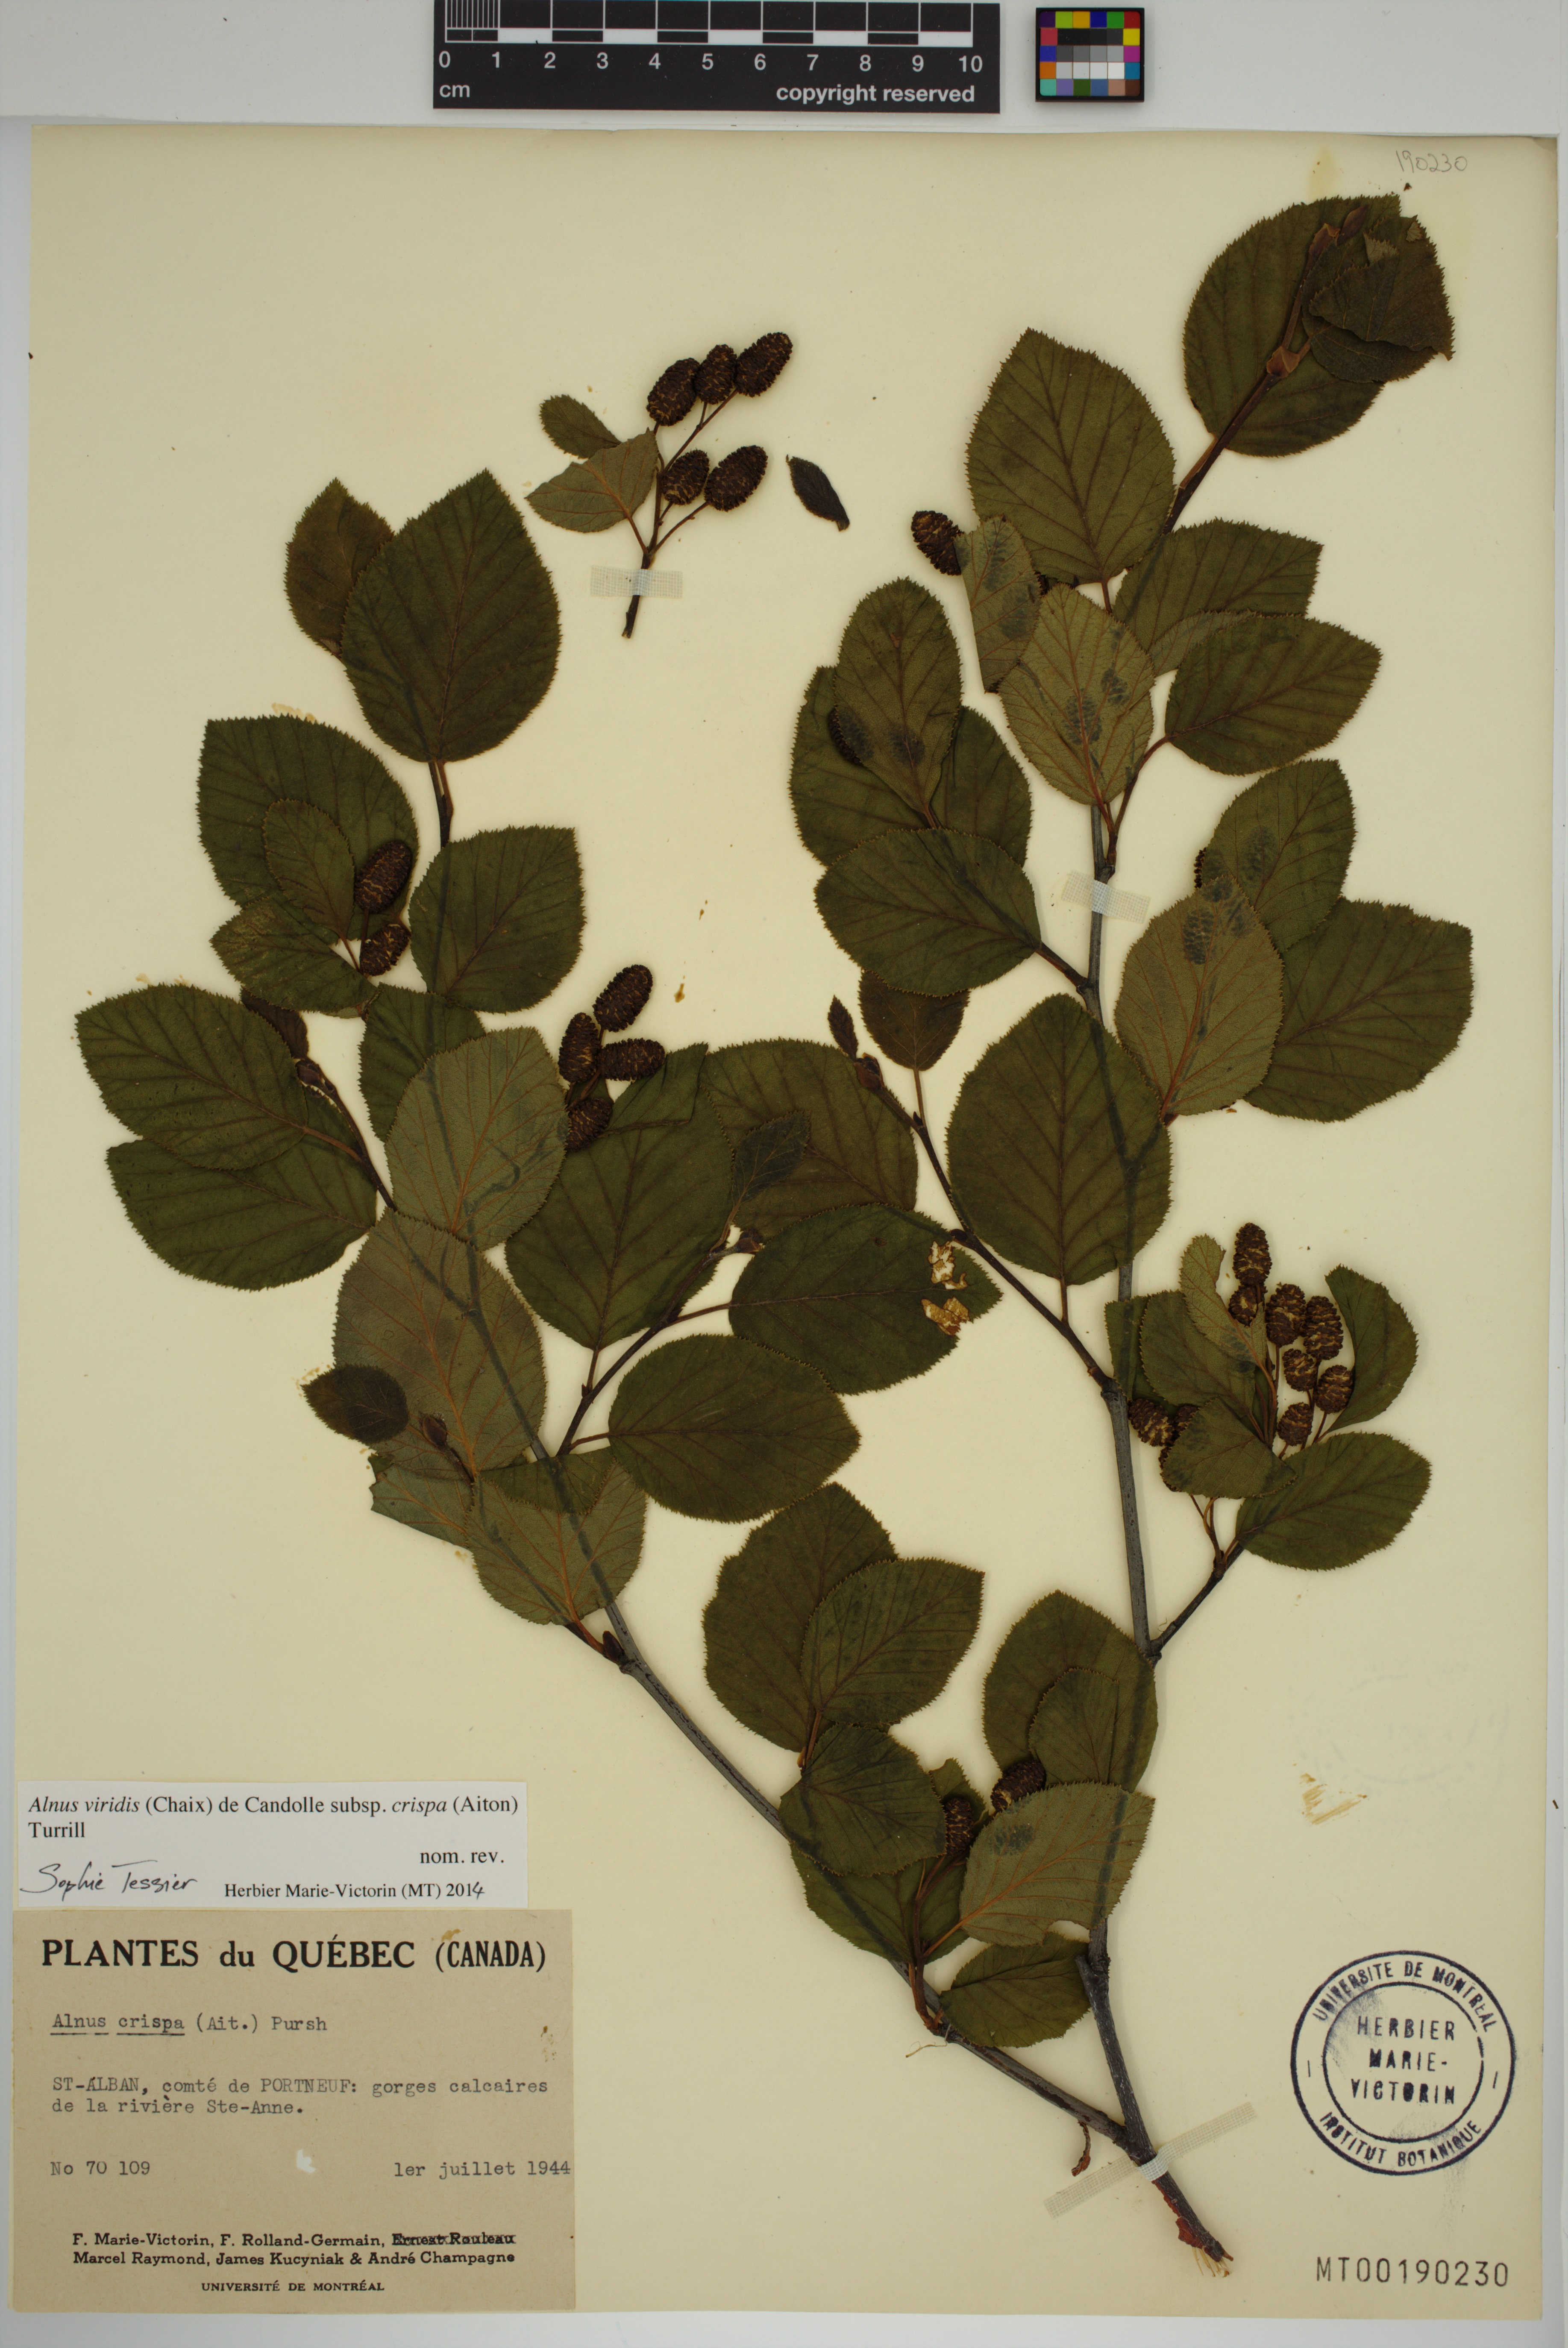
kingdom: Plantae
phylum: Tracheophyta
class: Magnoliopsida
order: Fagales
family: Betulaceae
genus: Alnus
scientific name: Alnus alnobetula
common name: Green alder
